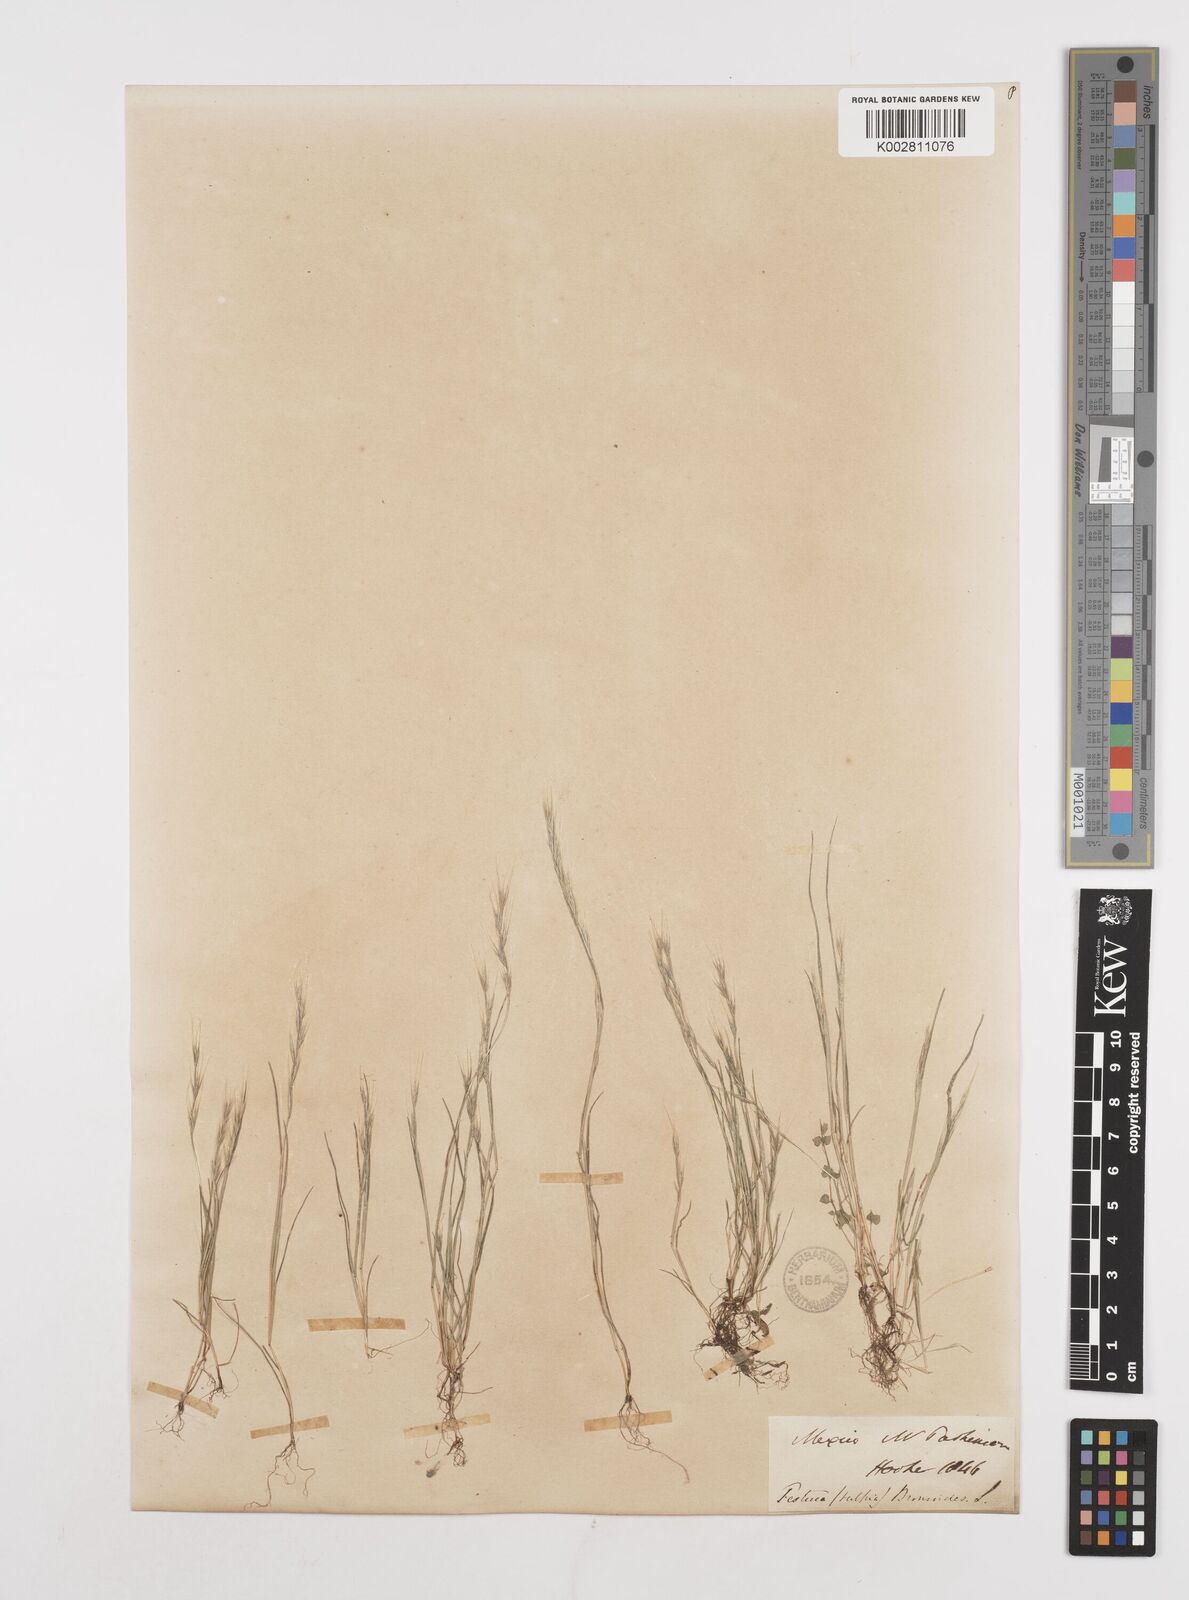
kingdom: Plantae
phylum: Tracheophyta
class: Liliopsida
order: Poales
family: Poaceae
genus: Festuca
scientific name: Festuca myuros
